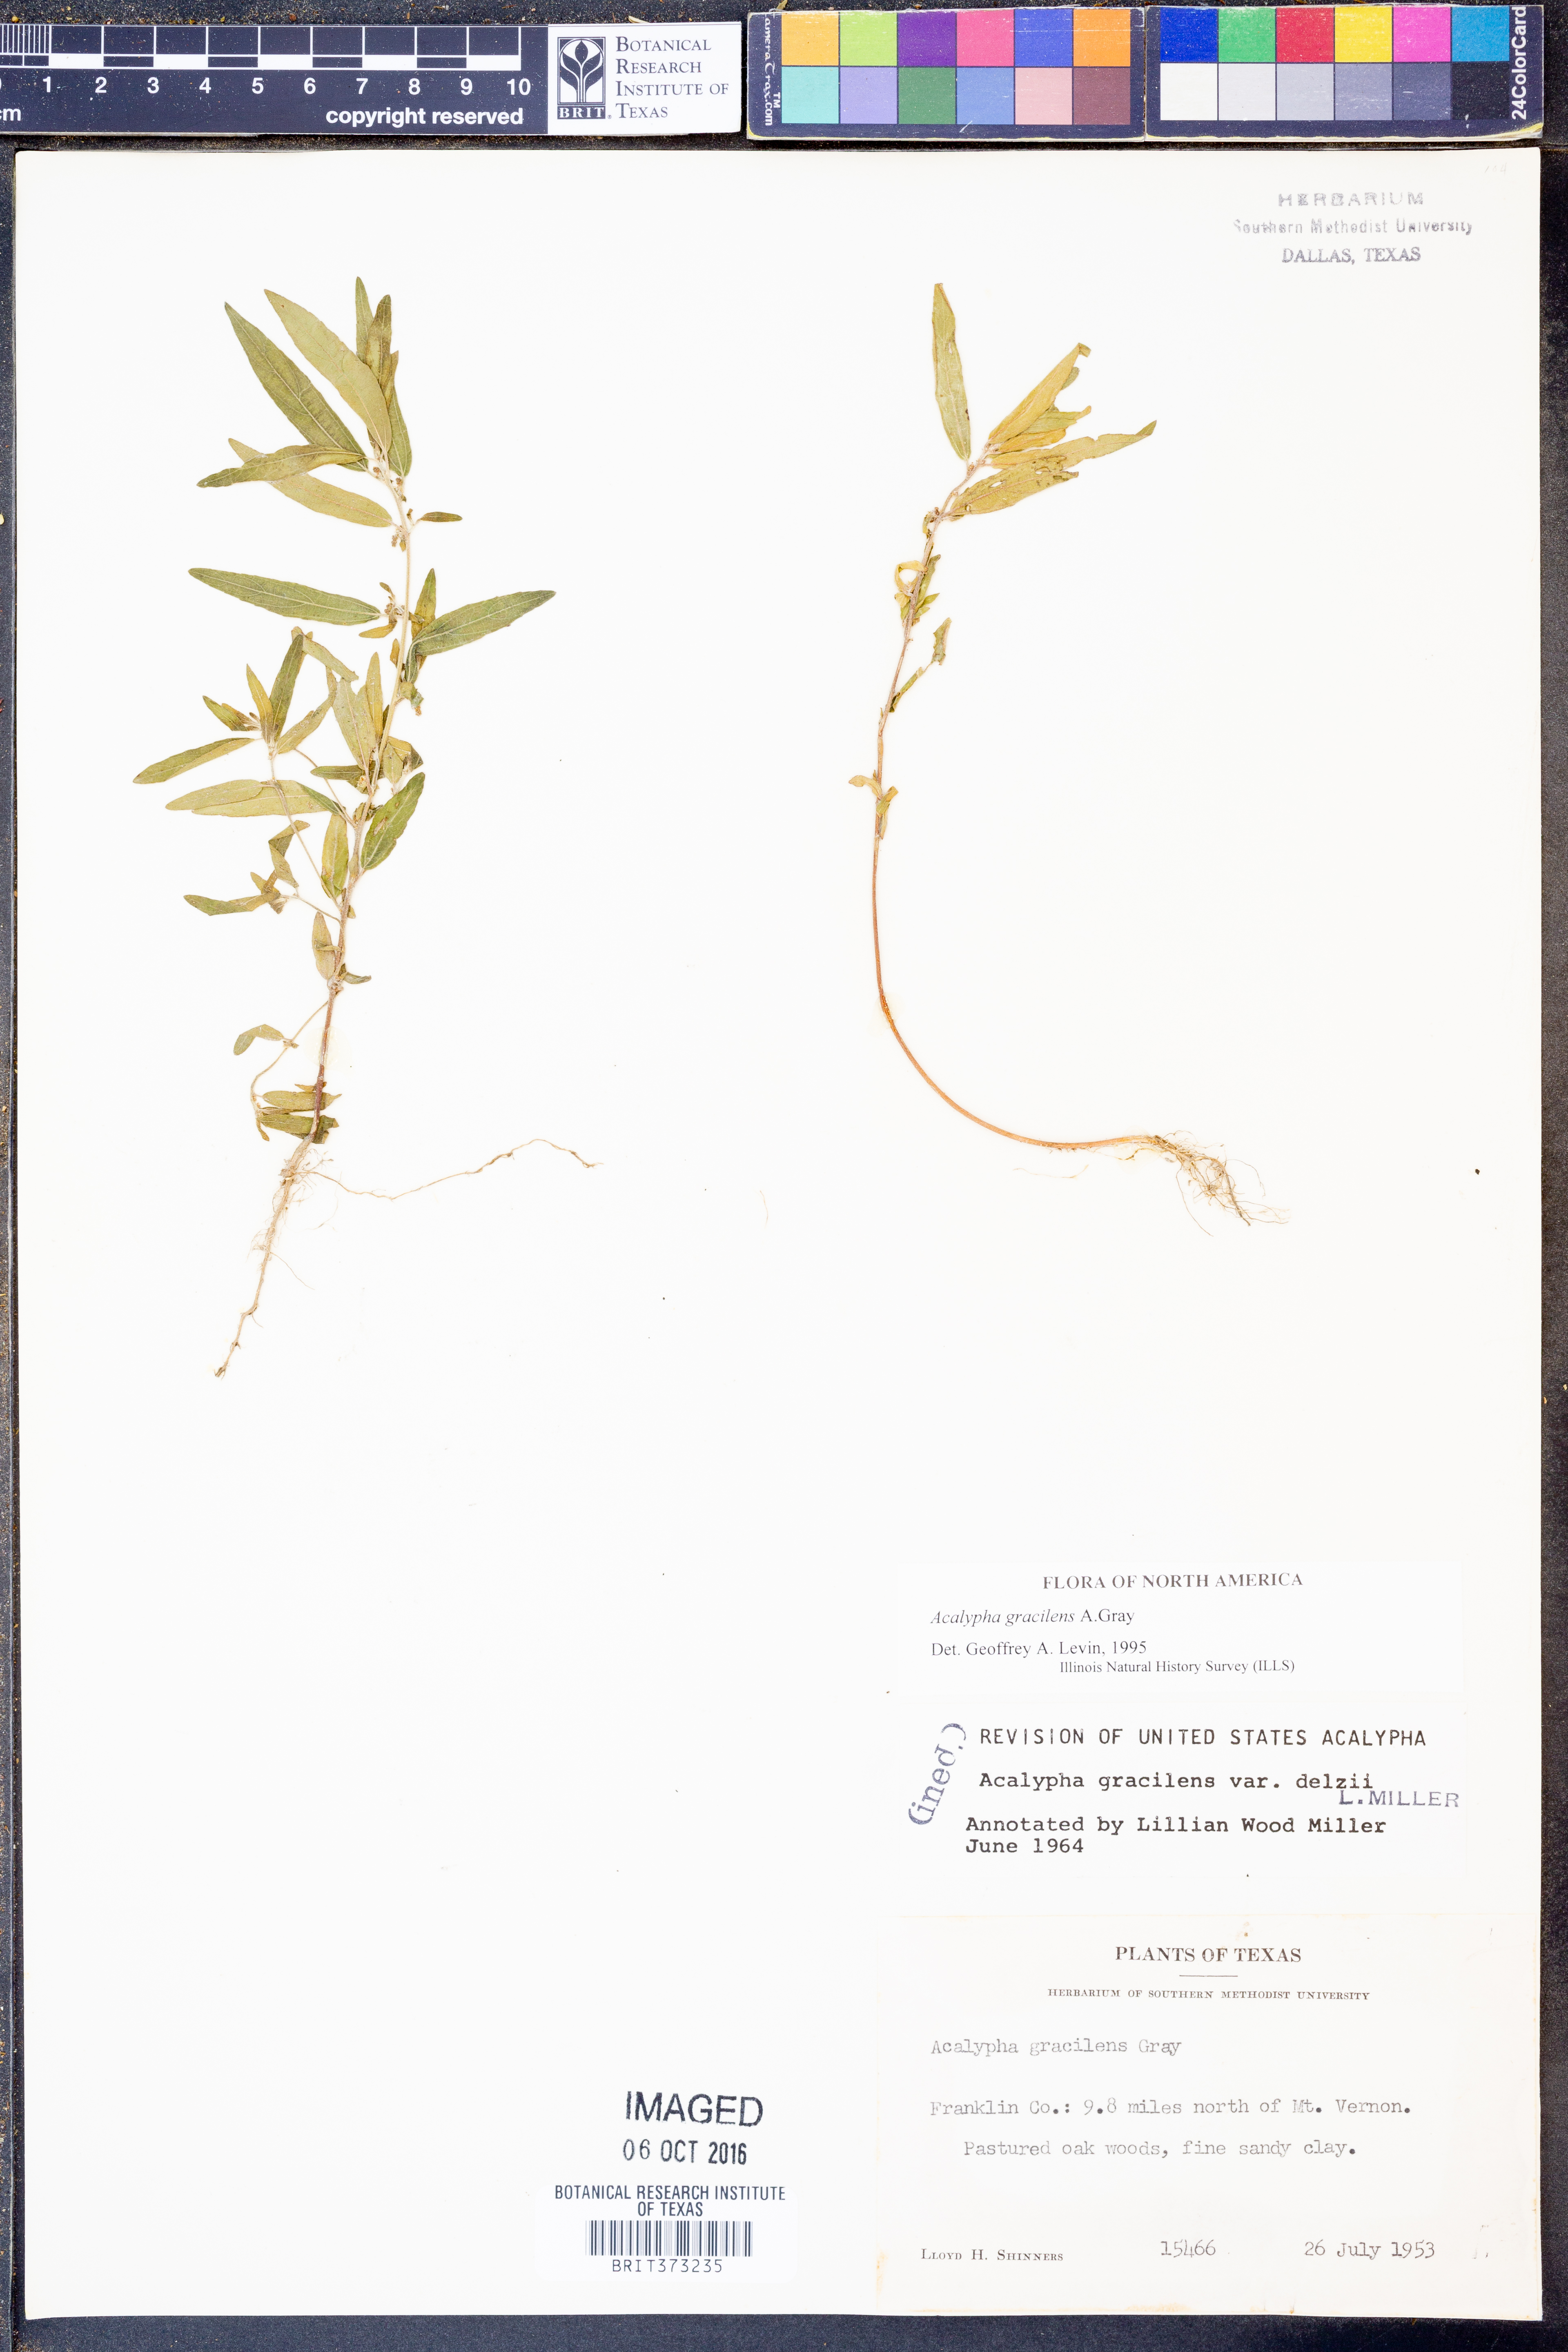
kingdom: Plantae
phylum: Tracheophyta
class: Magnoliopsida
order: Malpighiales
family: Euphorbiaceae
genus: Acalypha
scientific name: Acalypha gracilens
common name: Slender three-seeded mercury
